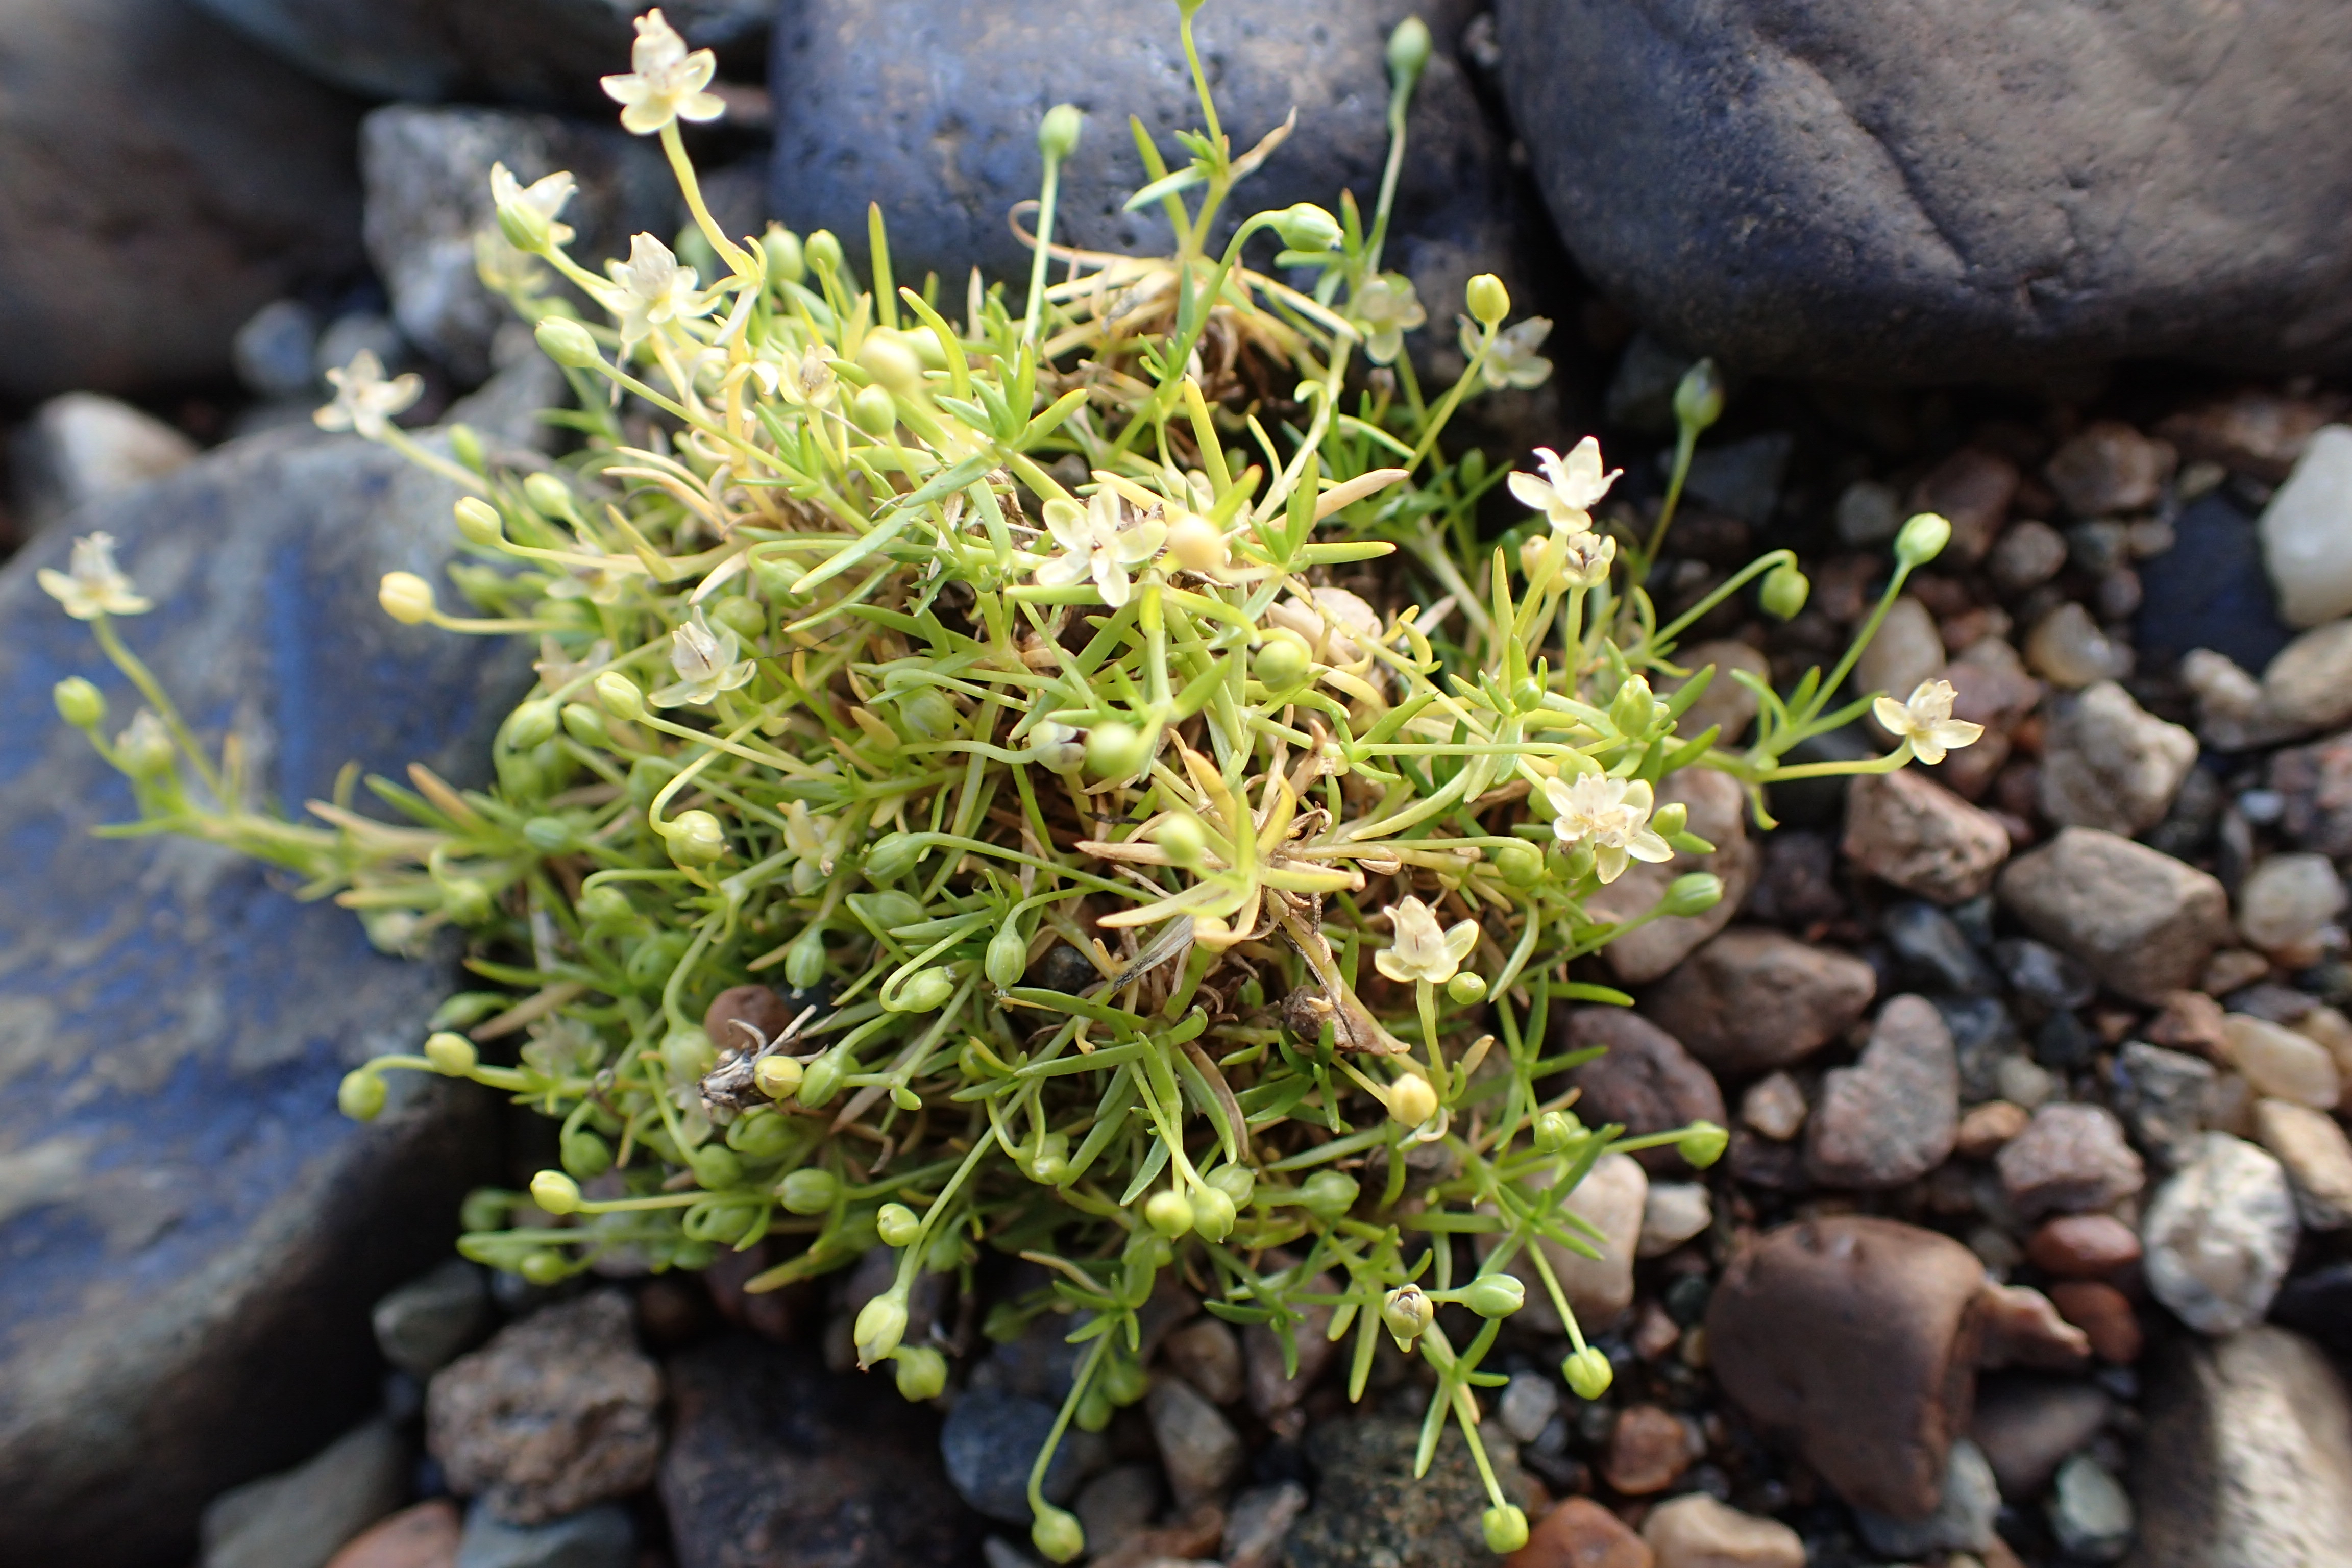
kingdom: Plantae
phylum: Tracheophyta
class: Magnoliopsida
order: Caryophyllales
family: Caryophyllaceae
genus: Sagina
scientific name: Sagina procumbens
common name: Procumbent pearlwort
